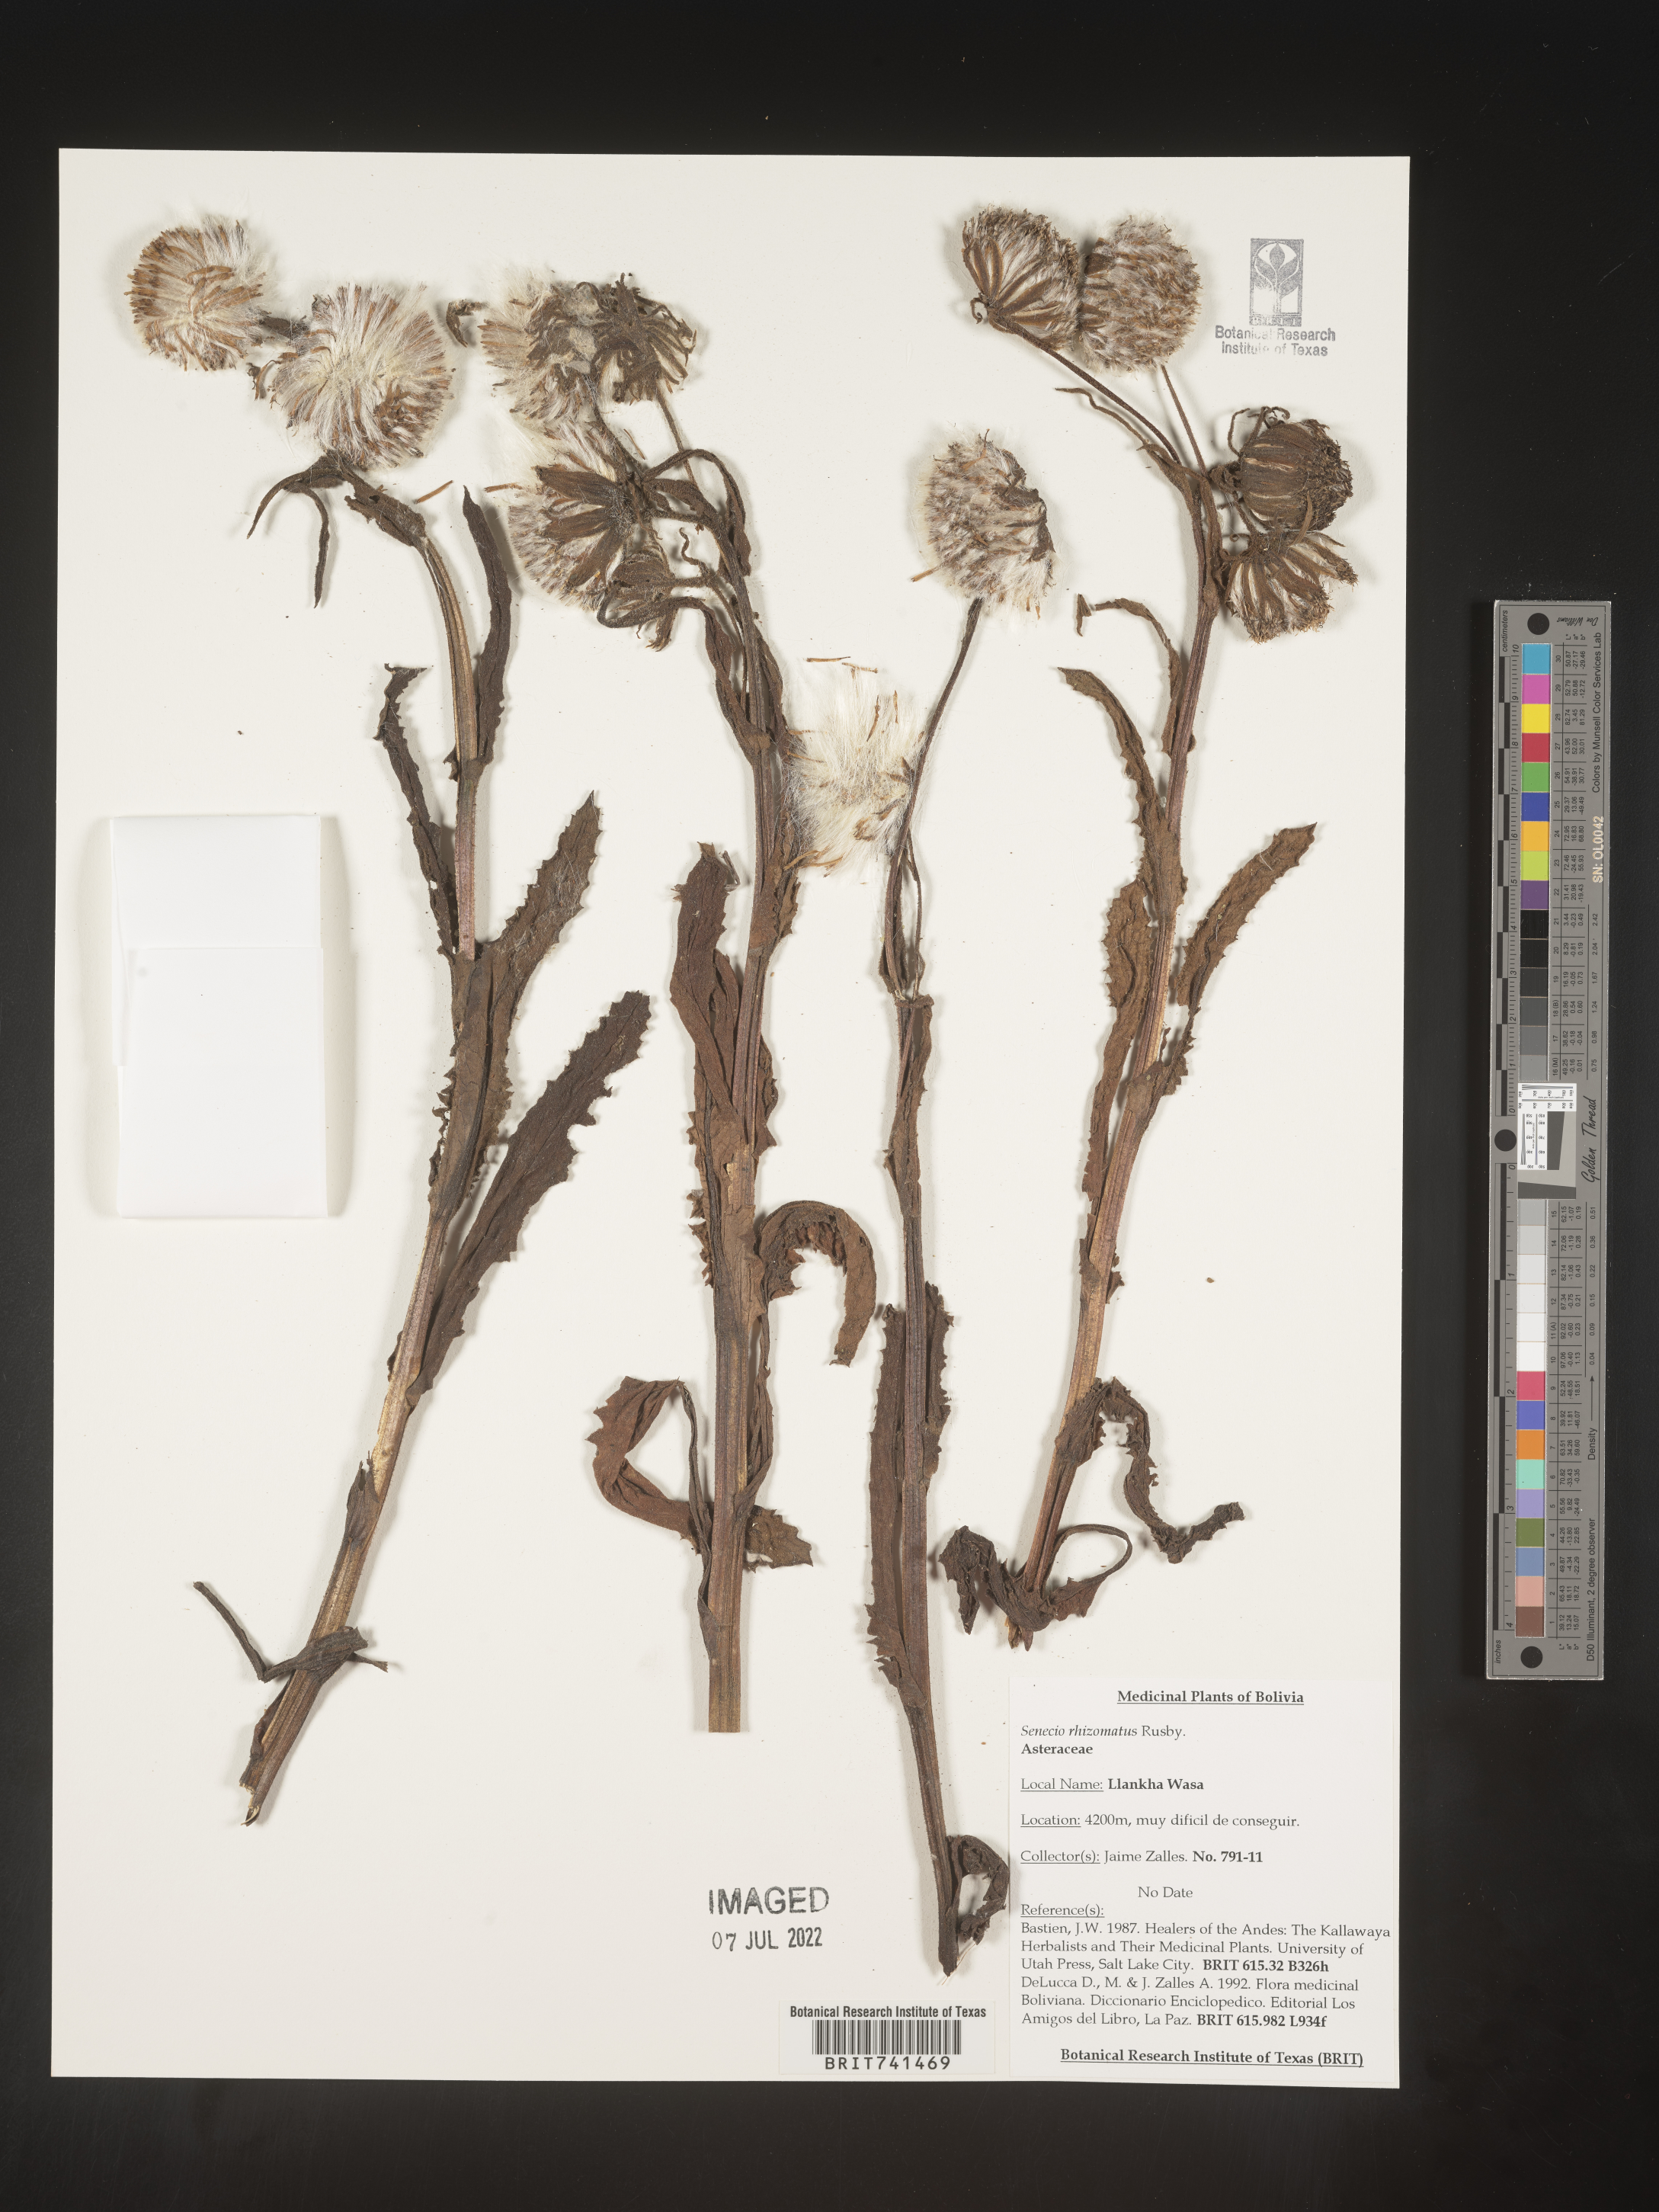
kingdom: Plantae
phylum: Tracheophyta
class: Magnoliopsida
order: Asterales
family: Asteraceae
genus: Senecio
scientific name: Senecio
